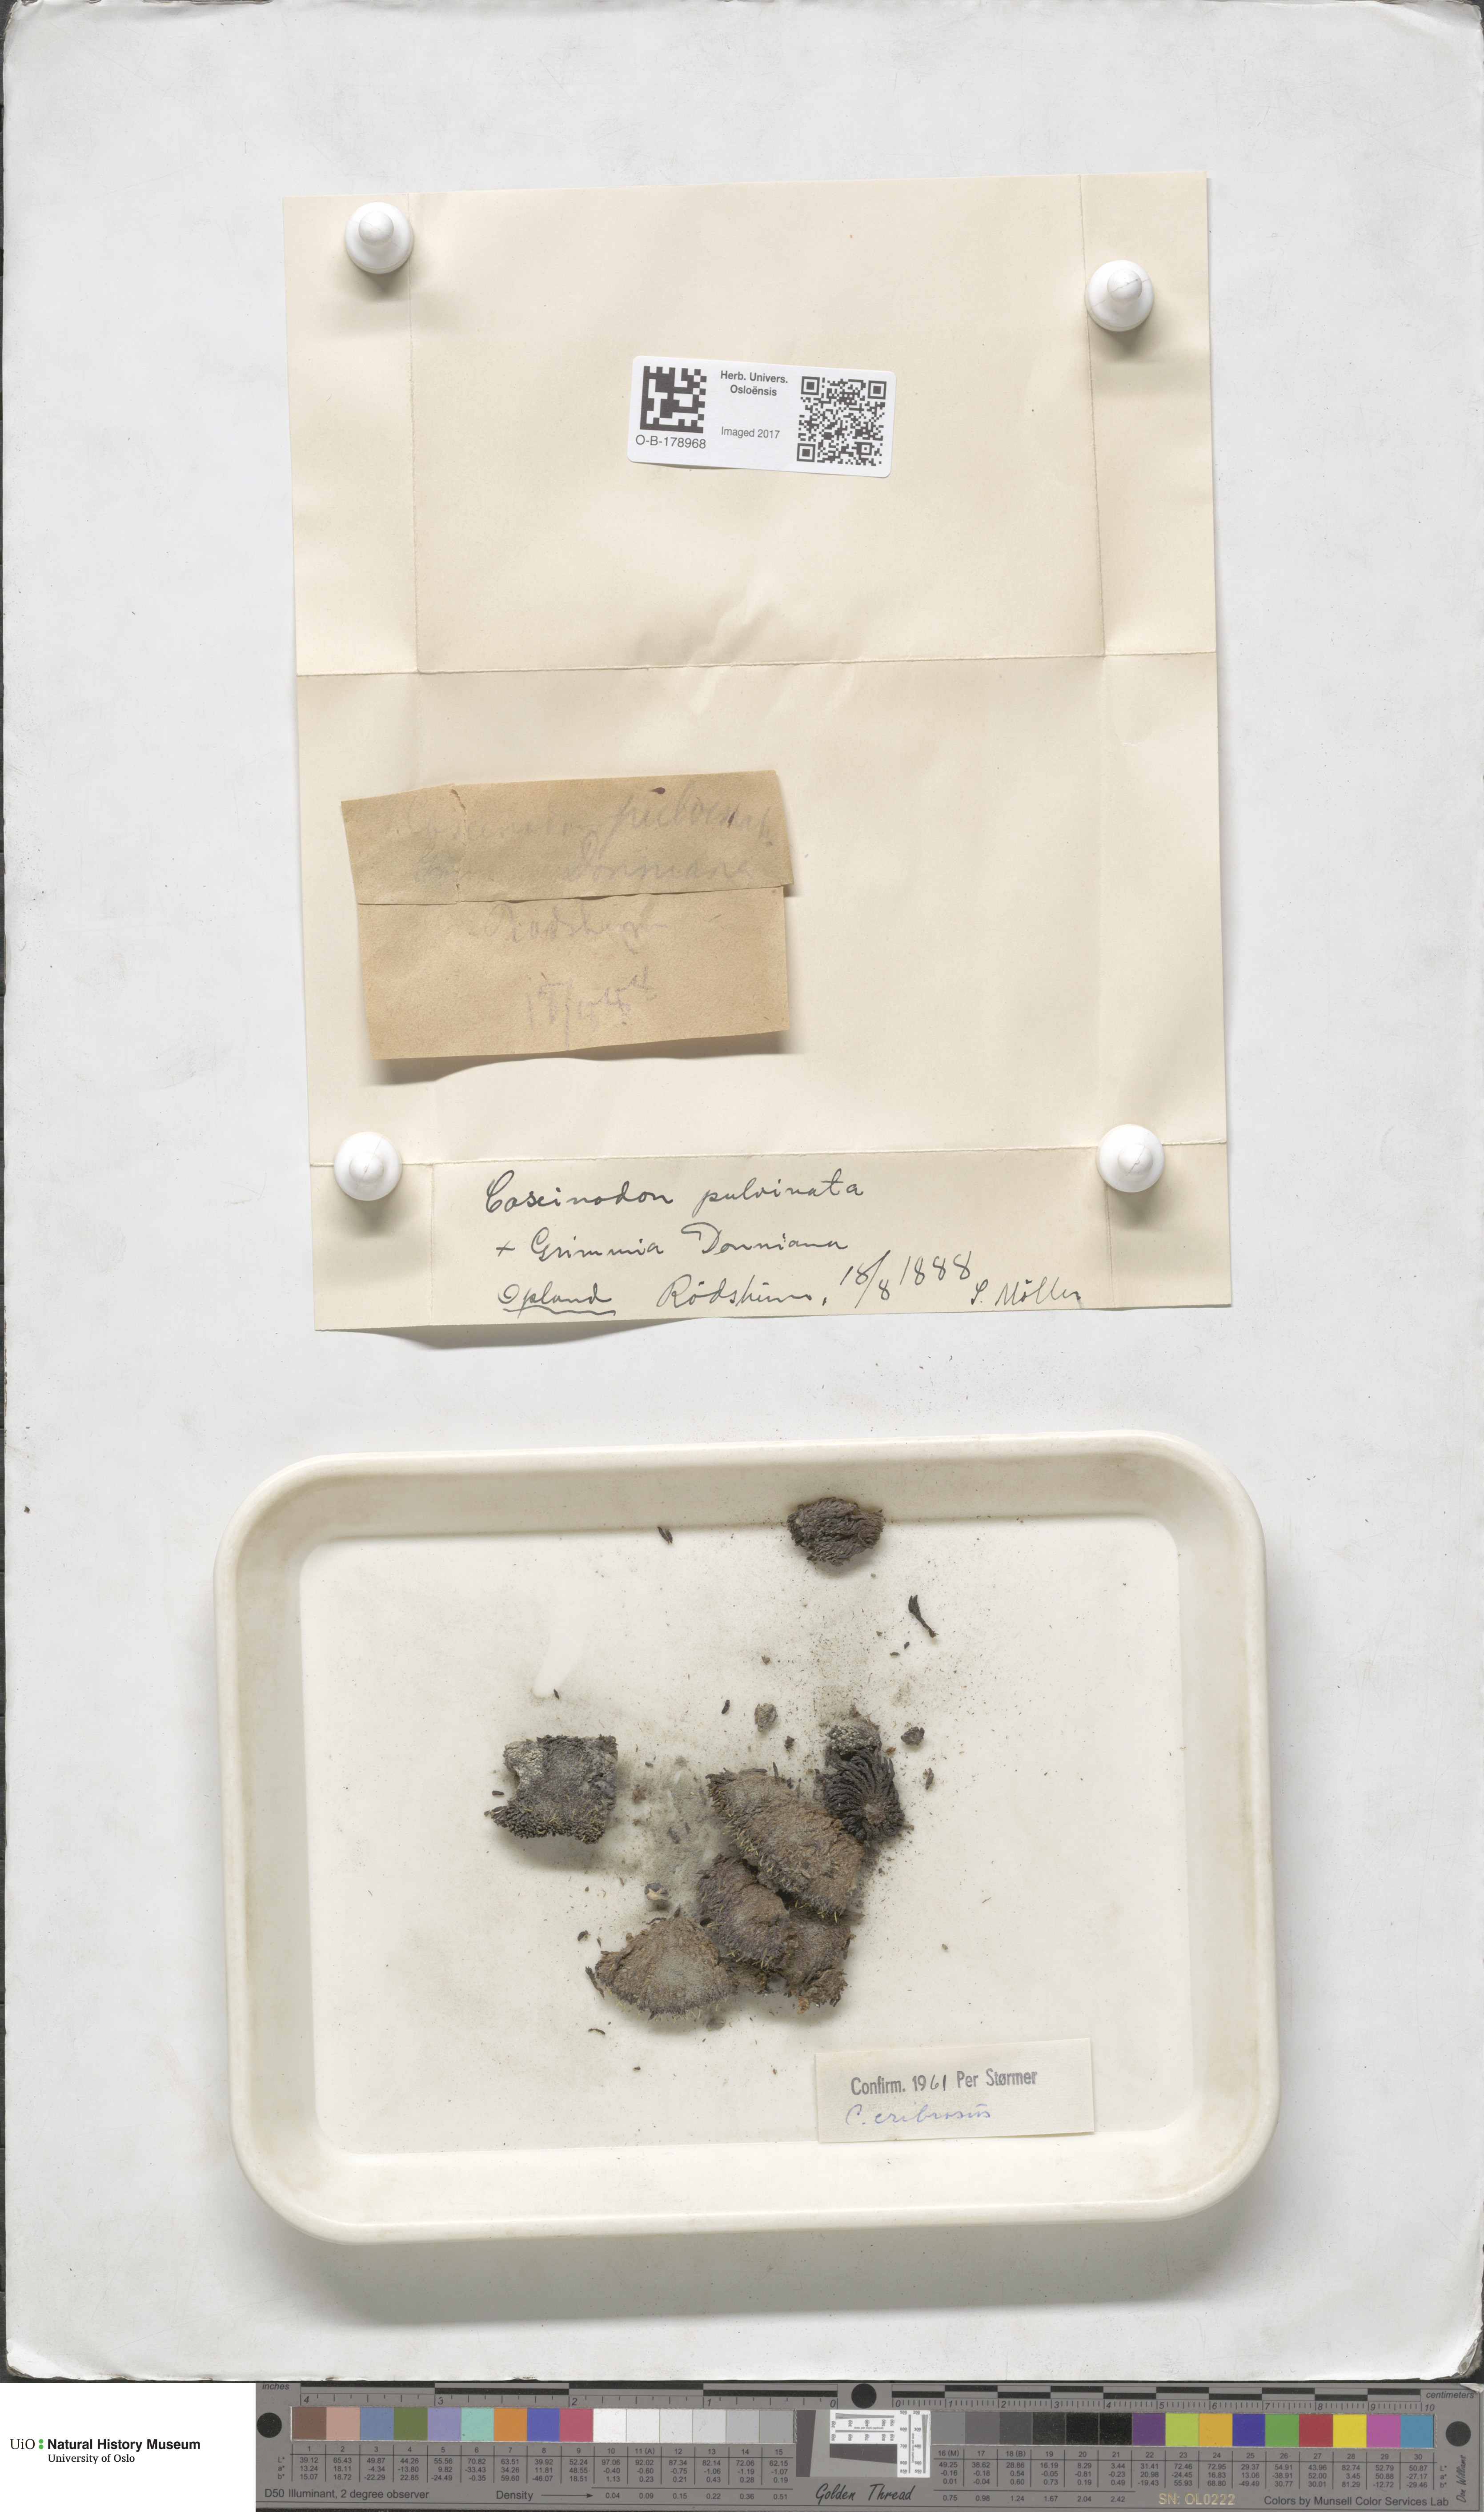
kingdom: Plantae
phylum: Bryophyta
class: Bryopsida
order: Bartramiales
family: Bartramiaceae
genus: Conostomum
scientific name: Conostomum tetragonum
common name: Helmet moss
